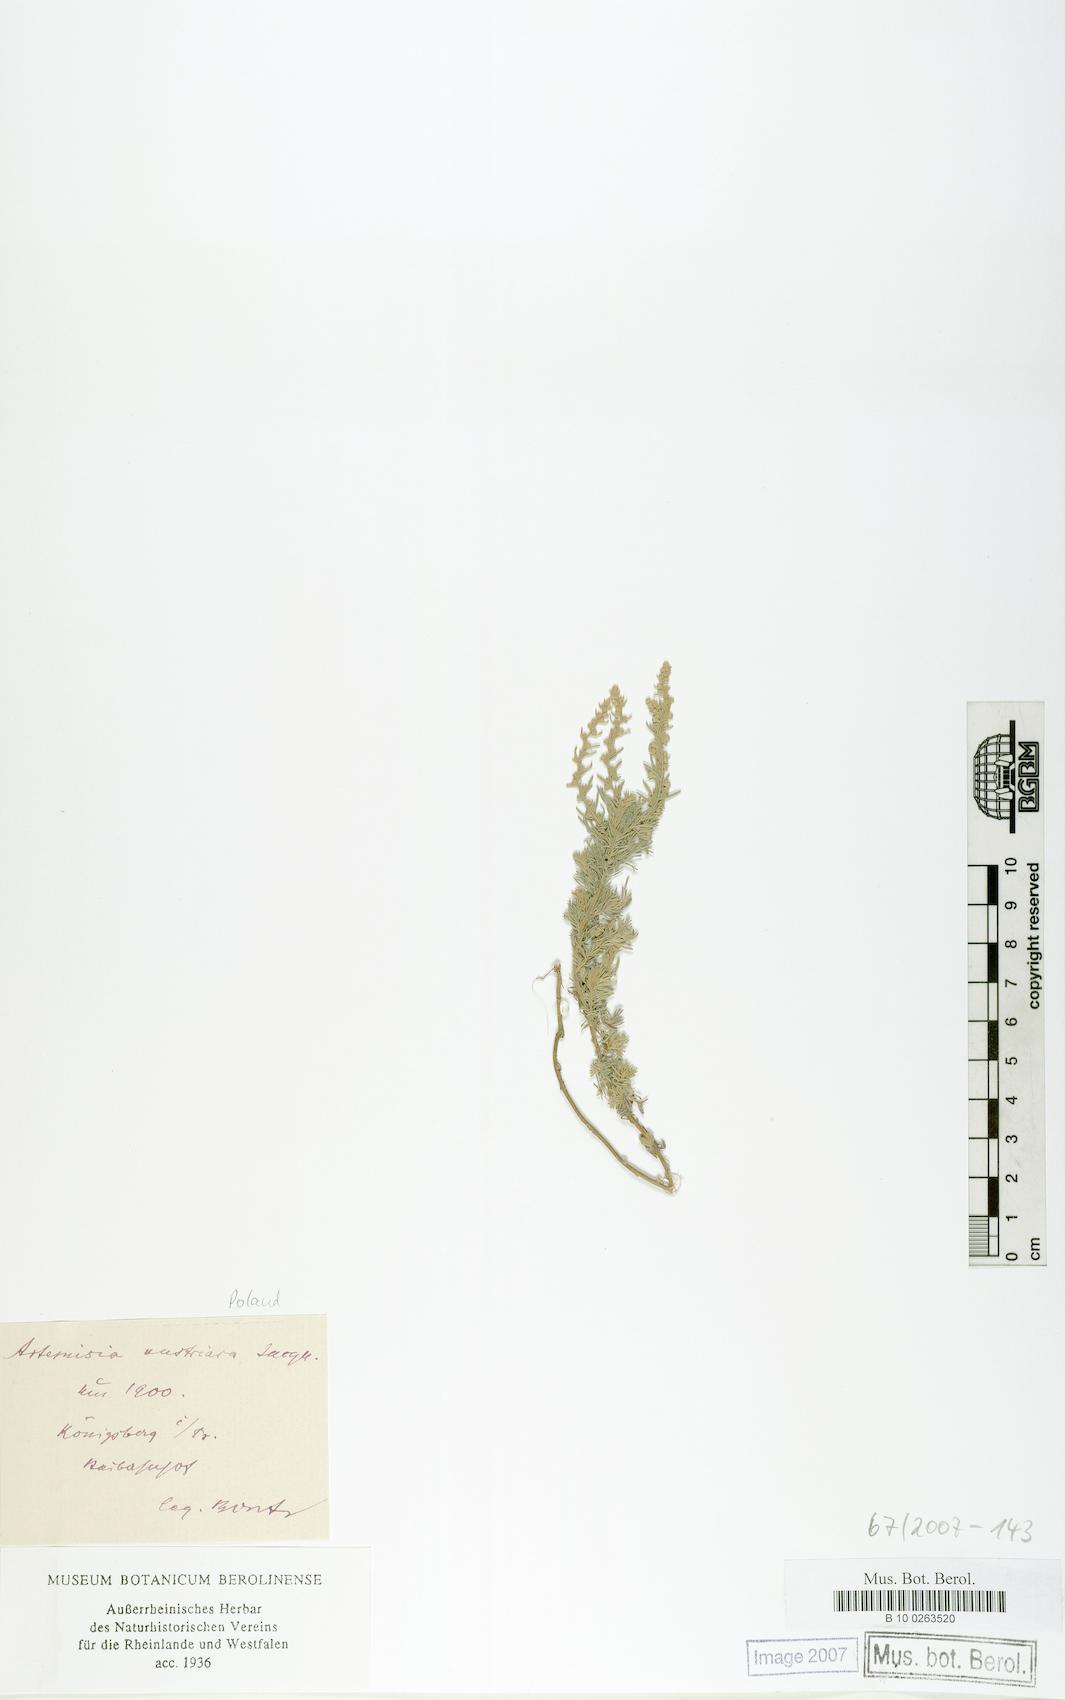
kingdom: Plantae
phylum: Tracheophyta
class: Magnoliopsida
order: Asterales
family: Asteraceae
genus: Artemisia
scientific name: Artemisia austriaca
